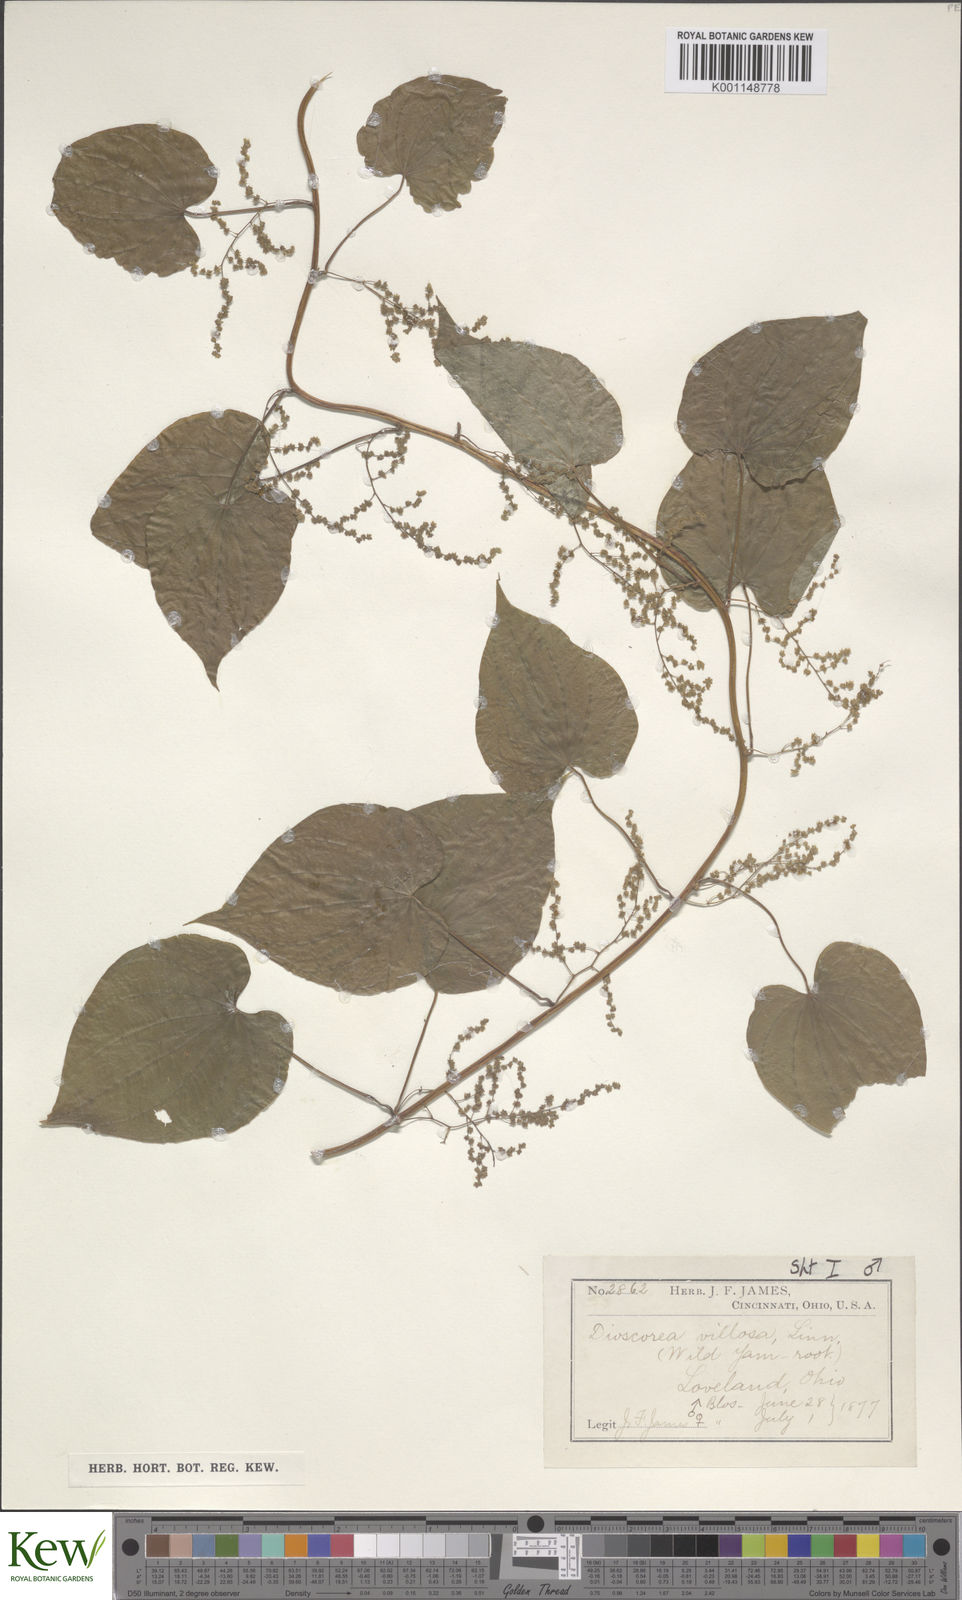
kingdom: Plantae
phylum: Tracheophyta
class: Liliopsida
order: Dioscoreales
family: Dioscoreaceae
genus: Dioscorea
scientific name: Dioscorea villosa
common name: Wild yam
